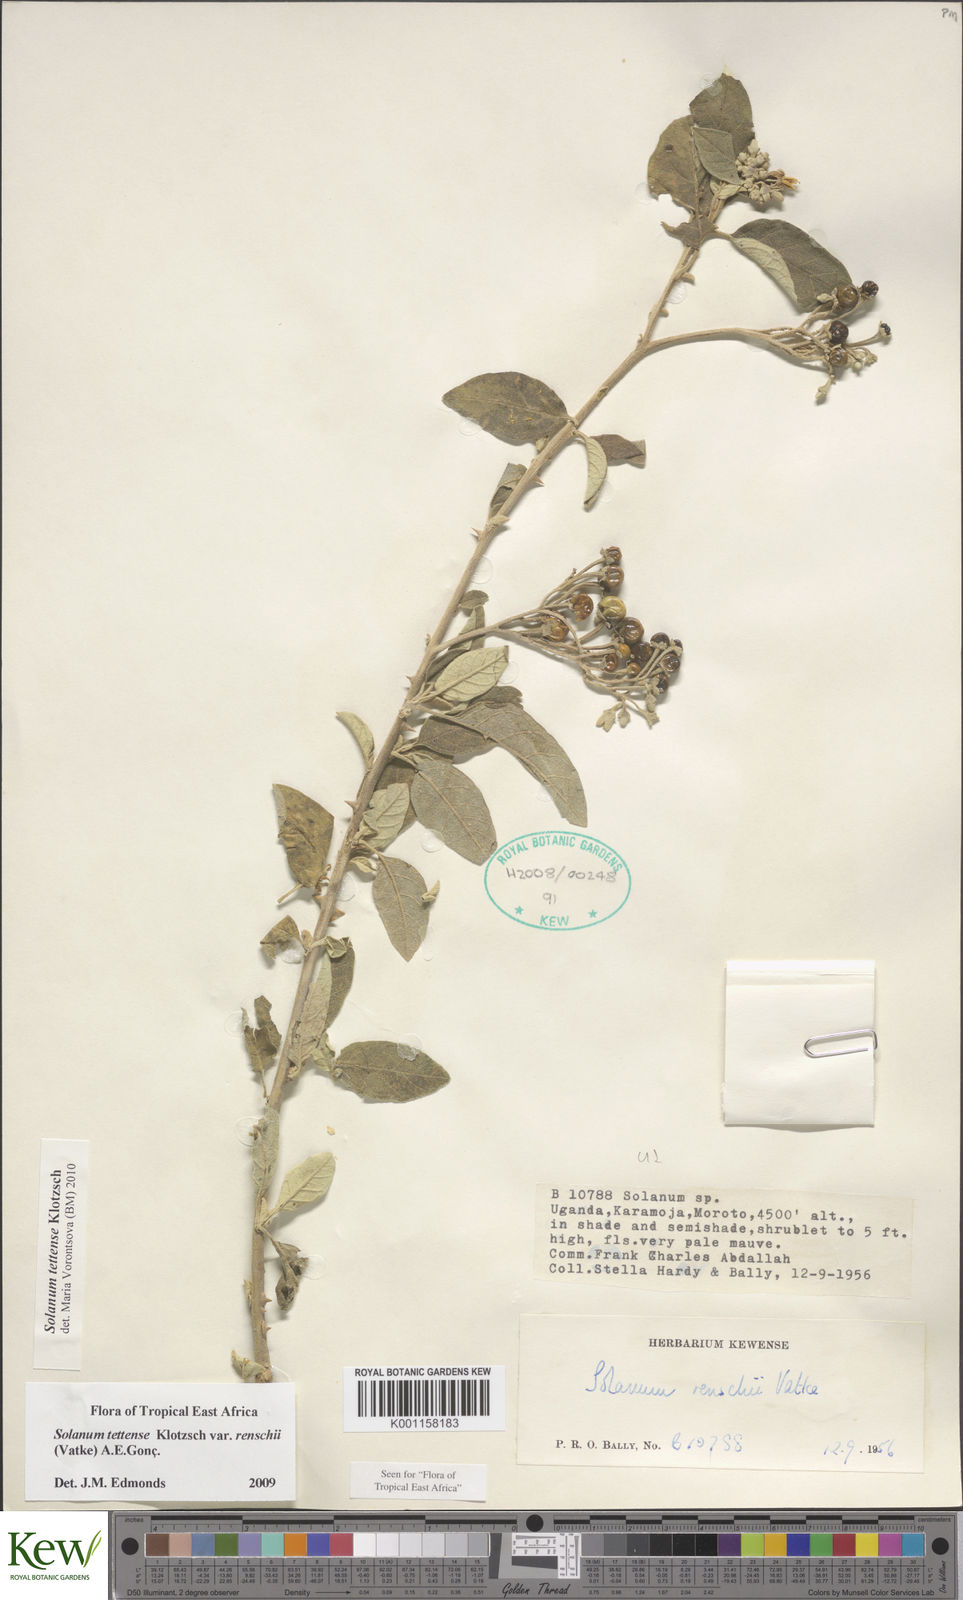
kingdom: Plantae
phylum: Tracheophyta
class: Magnoliopsida
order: Solanales
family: Solanaceae
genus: Solanum
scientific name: Solanum tettense
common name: Mozambique bitter apple
